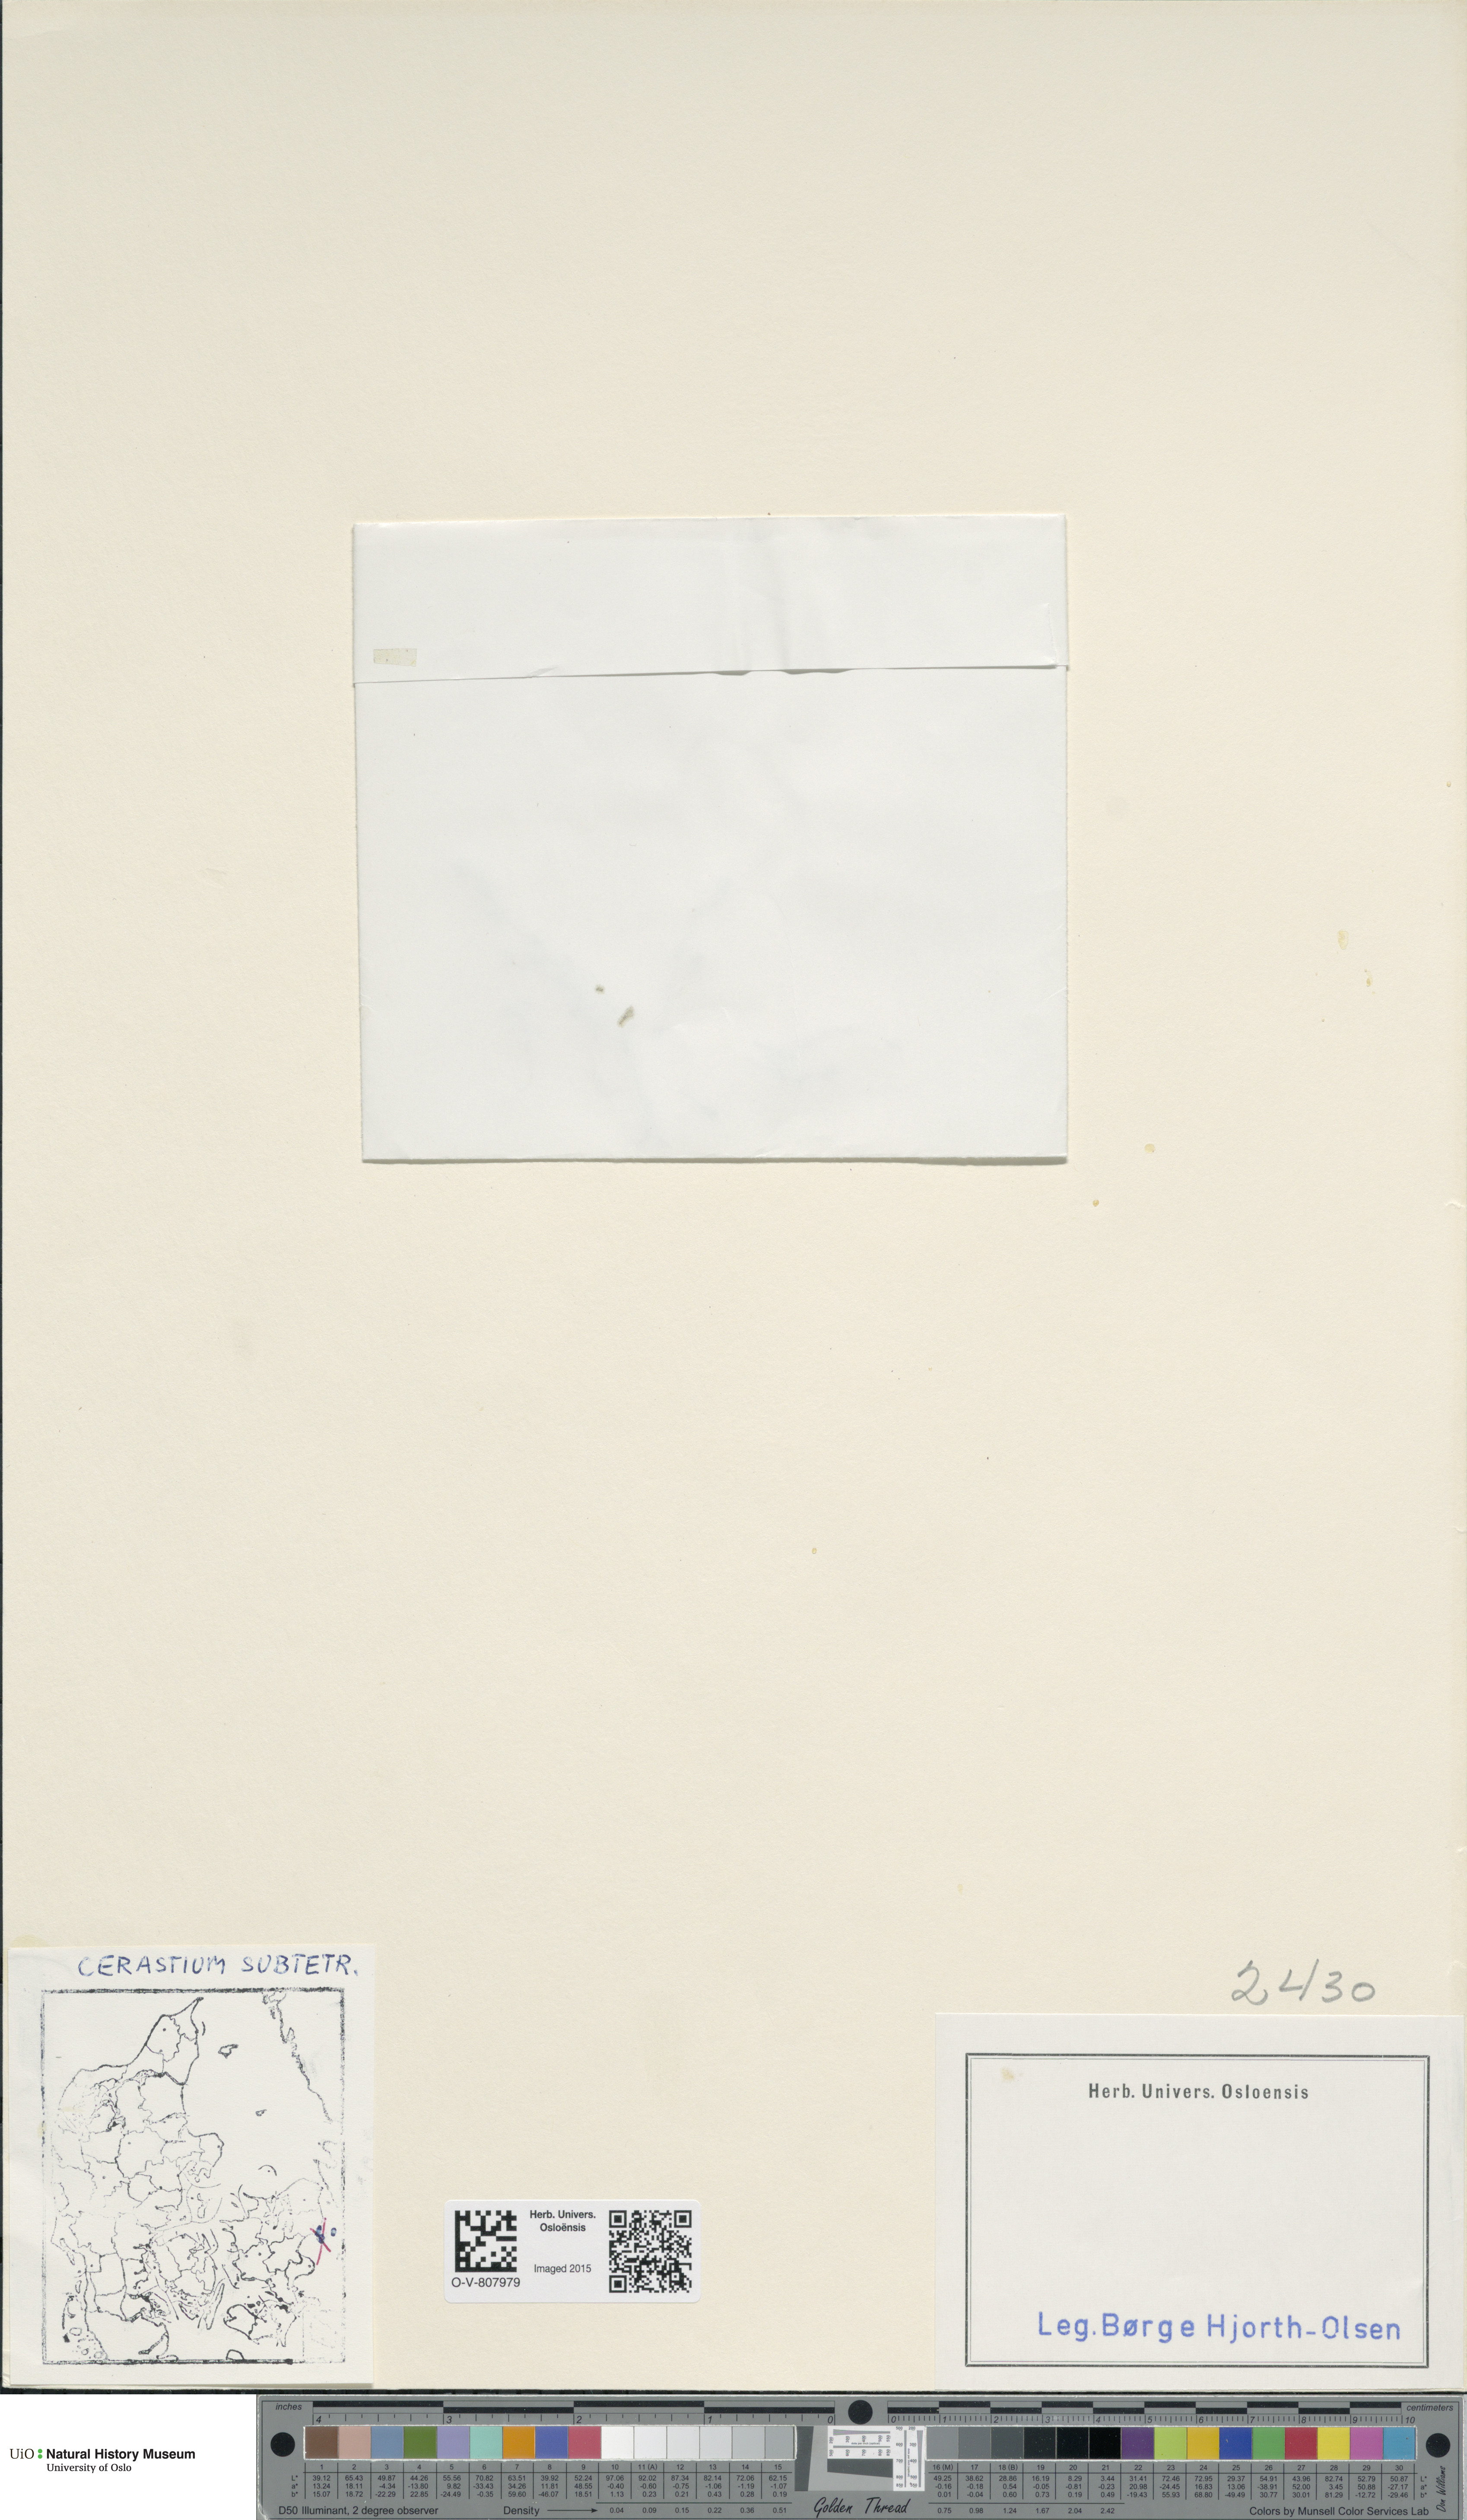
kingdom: Plantae
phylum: Tracheophyta
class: Magnoliopsida
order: Caryophyllales
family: Caryophyllaceae
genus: Cerastium
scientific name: Cerastium subtetrandrum
